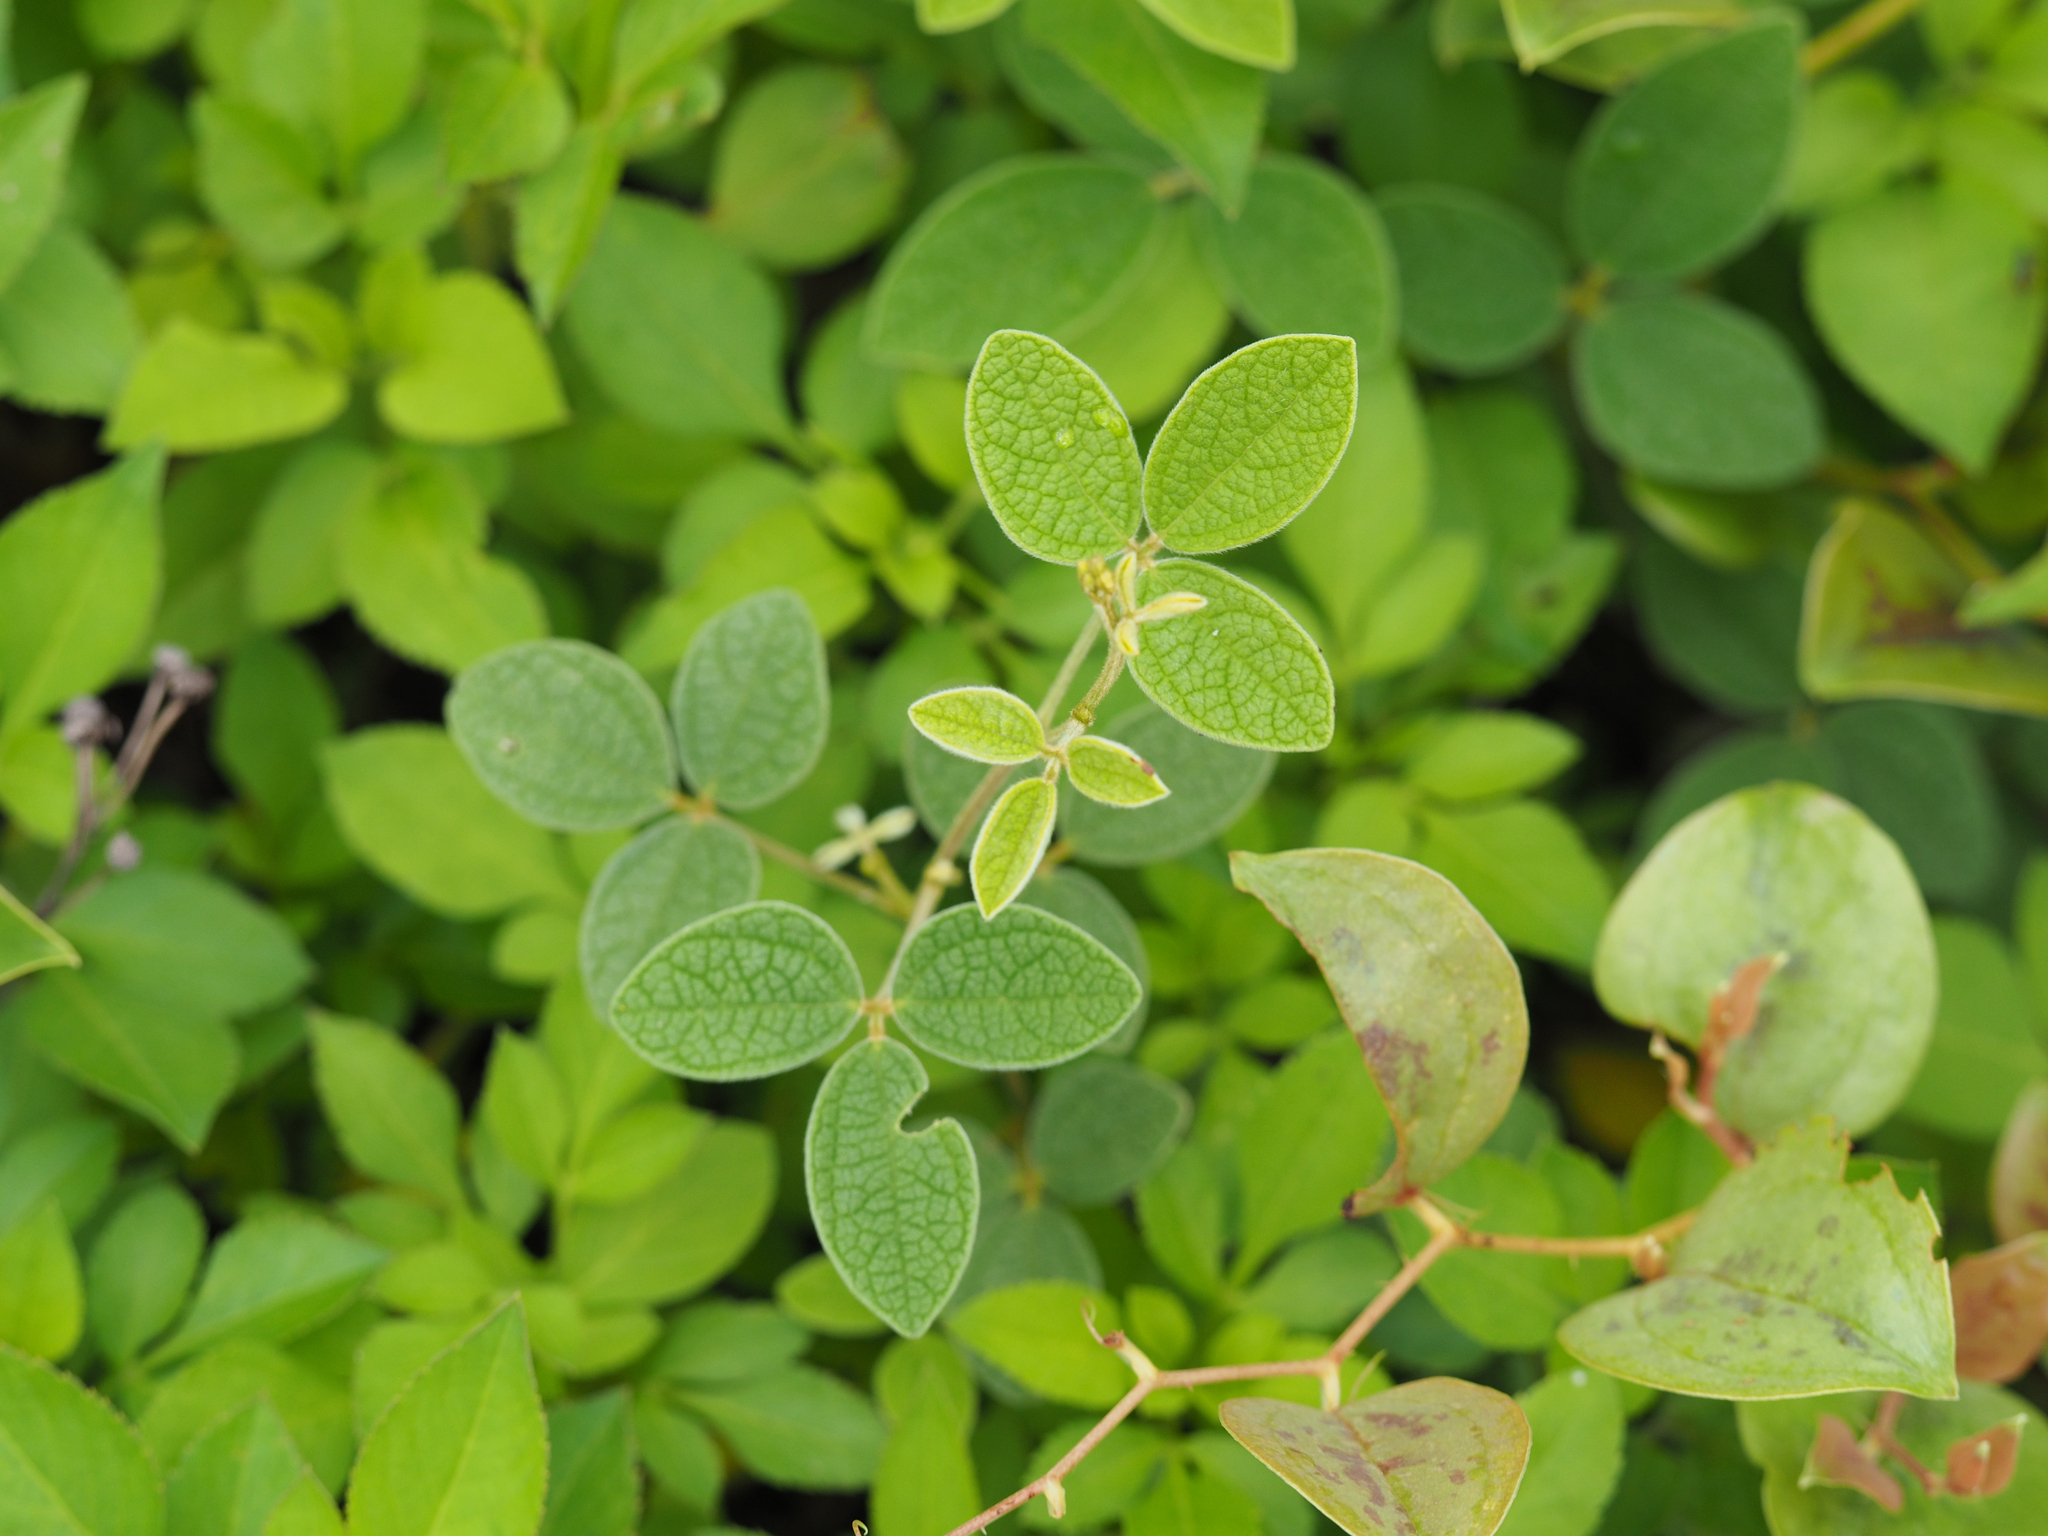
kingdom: Plantae
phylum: Tracheophyta
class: Magnoliopsida
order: Fabales
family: Fabaceae
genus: Cajanus
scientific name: Cajanus scarabaeoides
